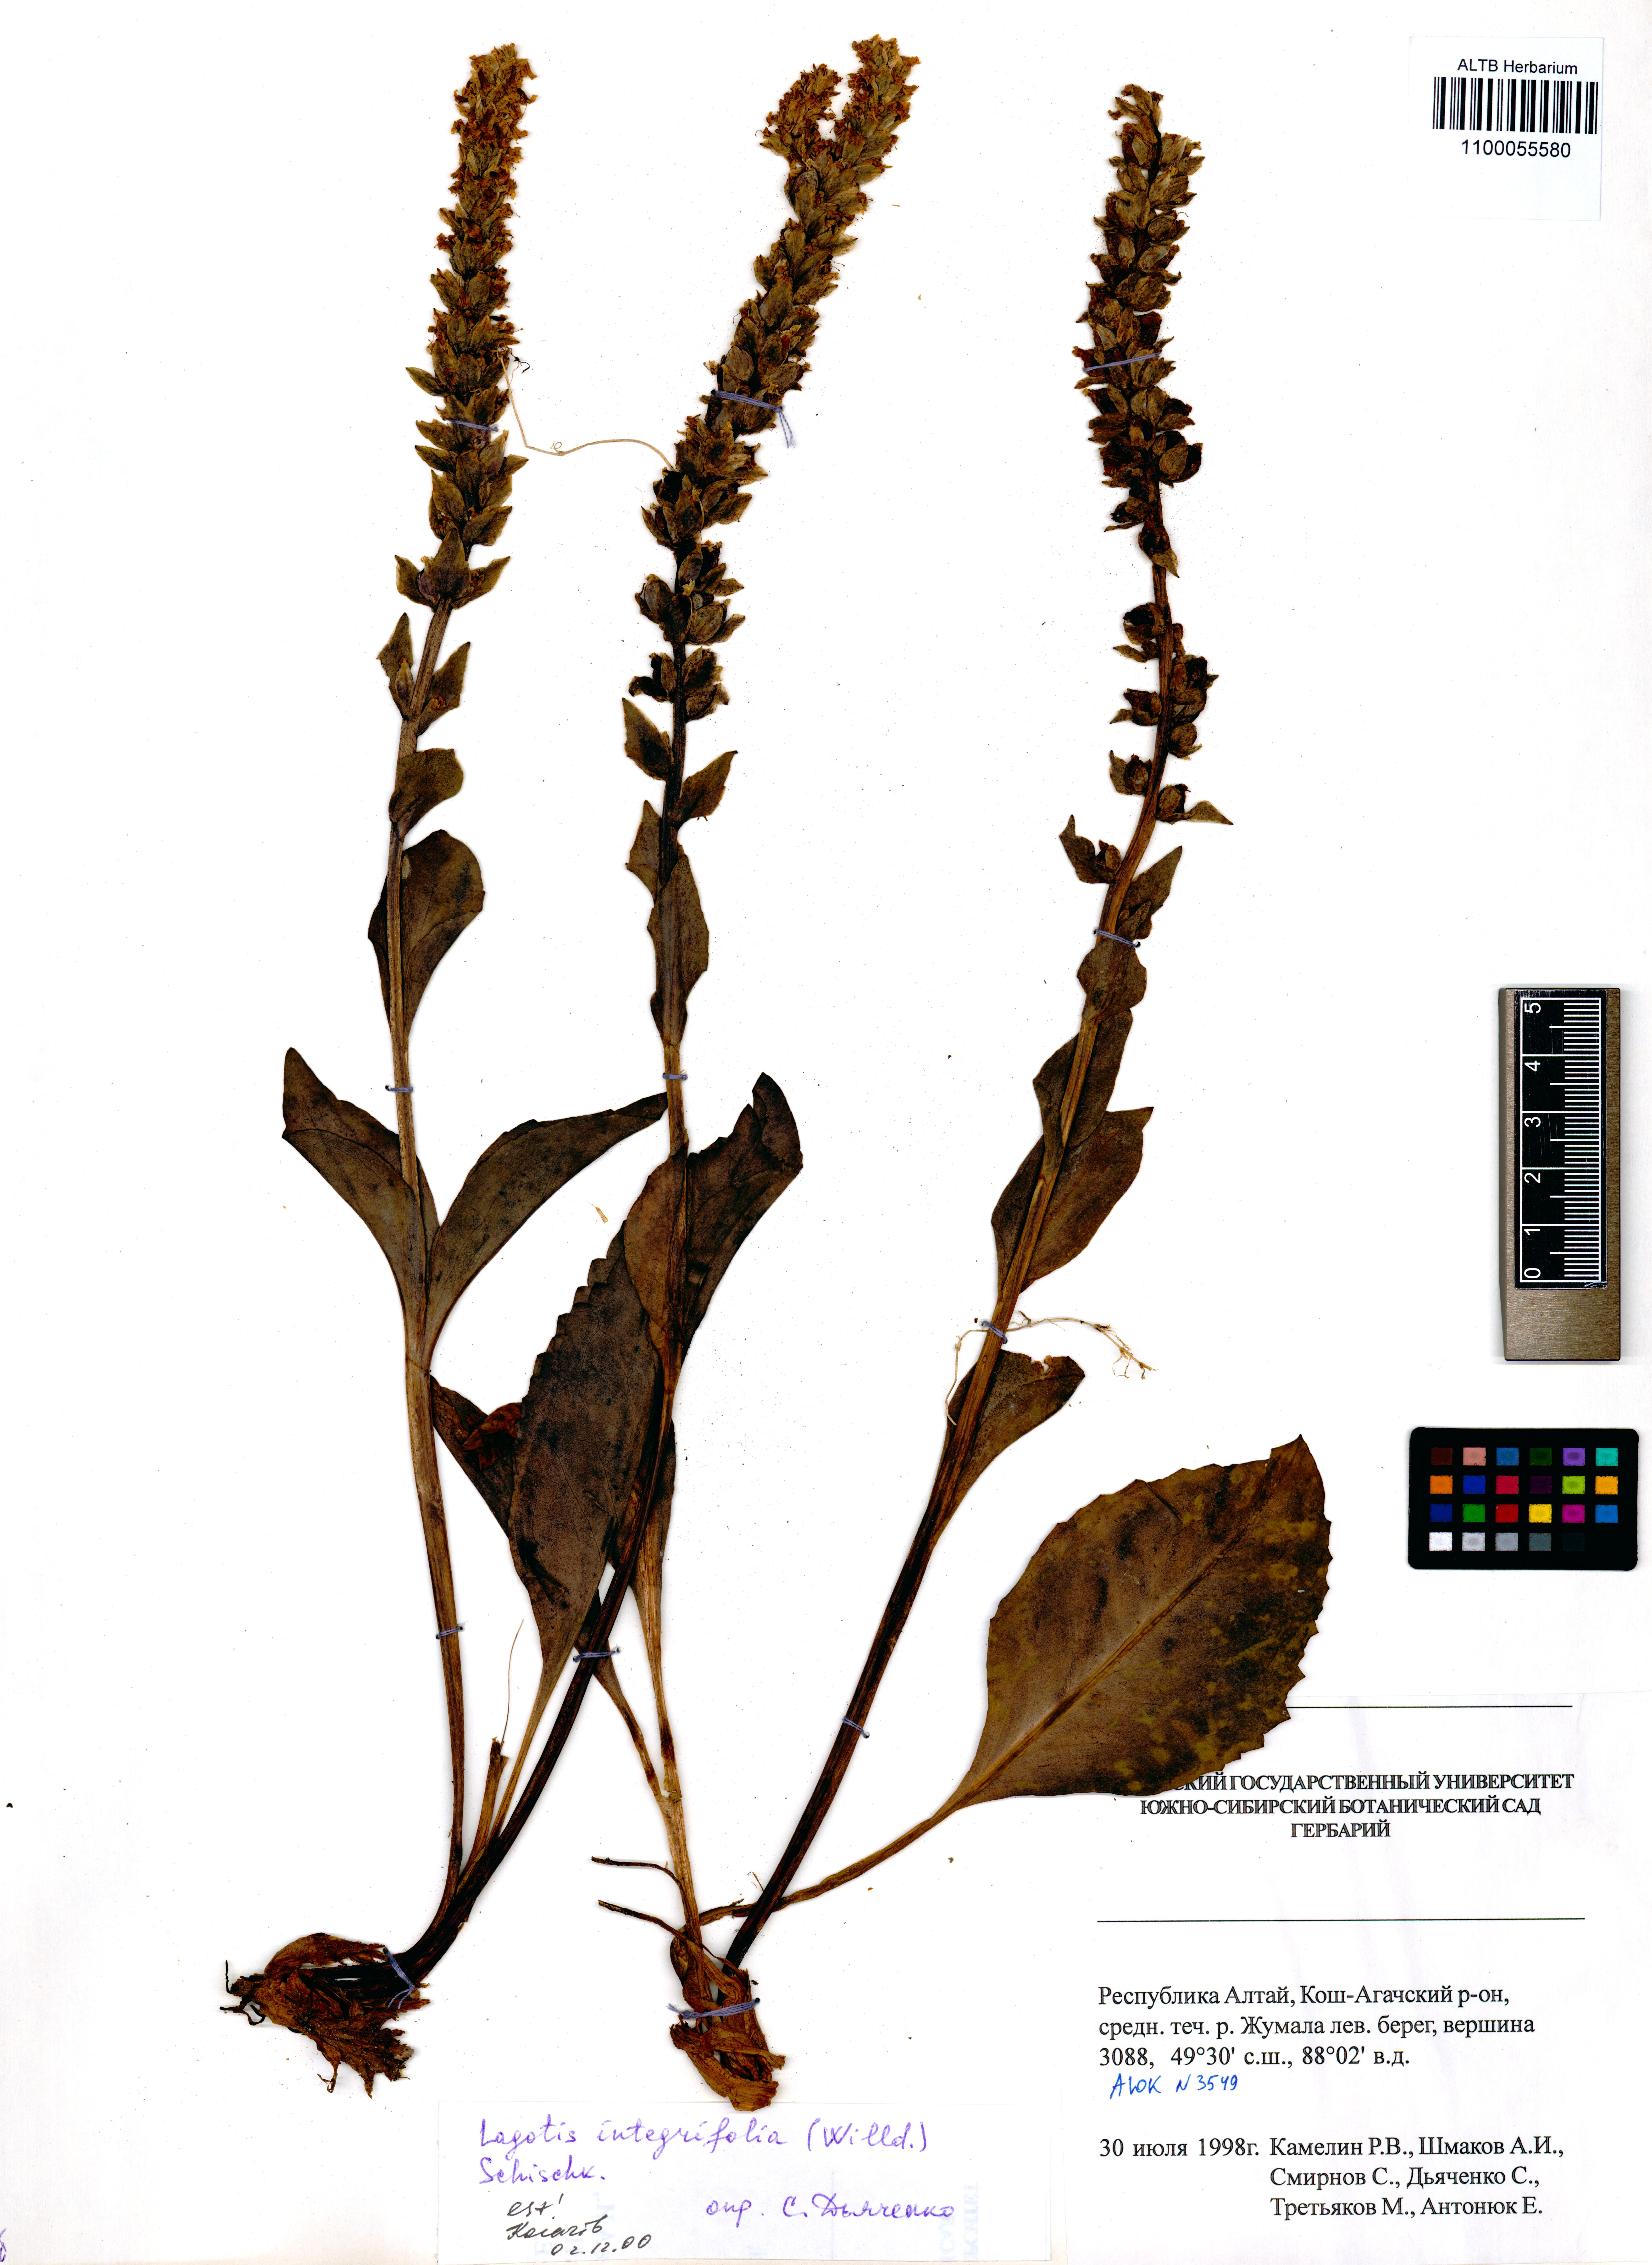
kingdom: Plantae
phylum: Tracheophyta
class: Magnoliopsida
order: Lamiales
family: Plantaginaceae
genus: Lagotis
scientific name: Lagotis integrifolia
